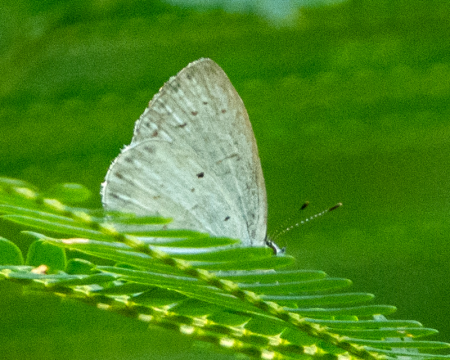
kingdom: Animalia
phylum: Arthropoda
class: Insecta
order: Lepidoptera
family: Lycaenidae
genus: Cyaniris
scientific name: Cyaniris neglecta
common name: Summer Azure
